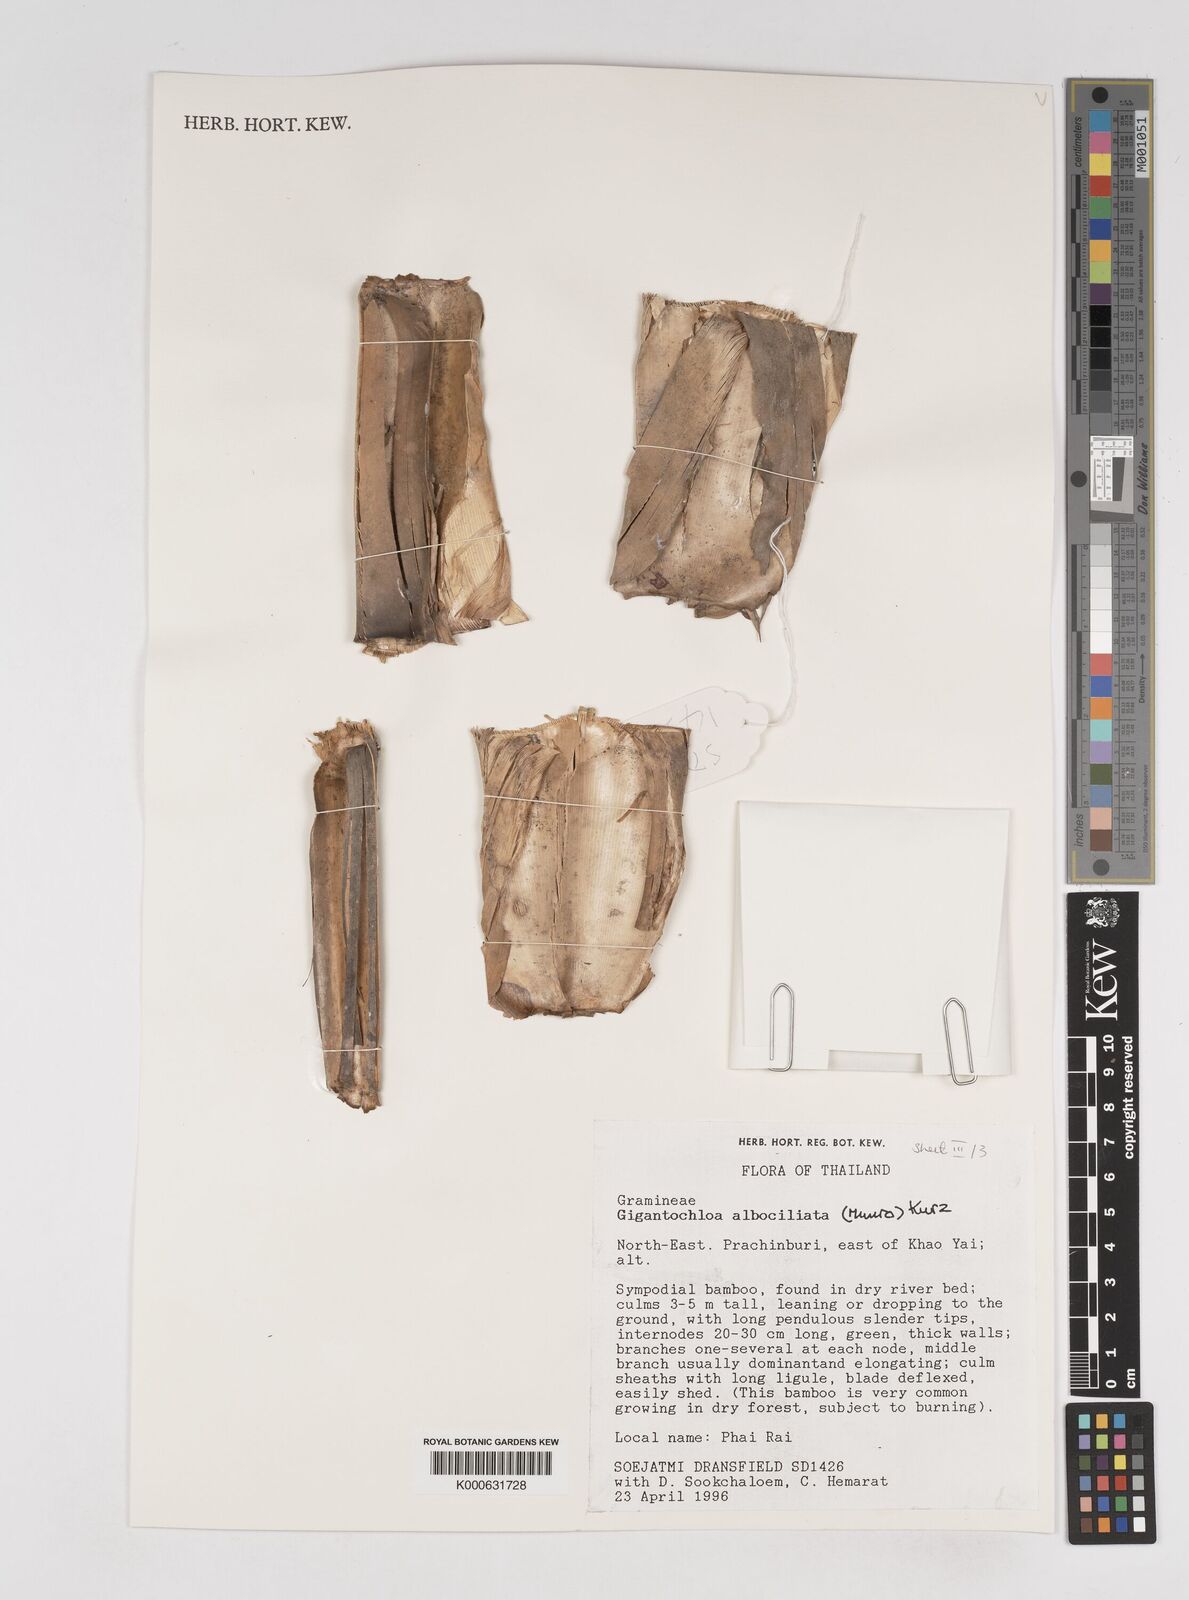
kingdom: Plantae
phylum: Tracheophyta
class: Liliopsida
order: Poales
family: Poaceae
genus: Gigantochloa
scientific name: Gigantochloa albociliata
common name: White-fringe gigantochloa
